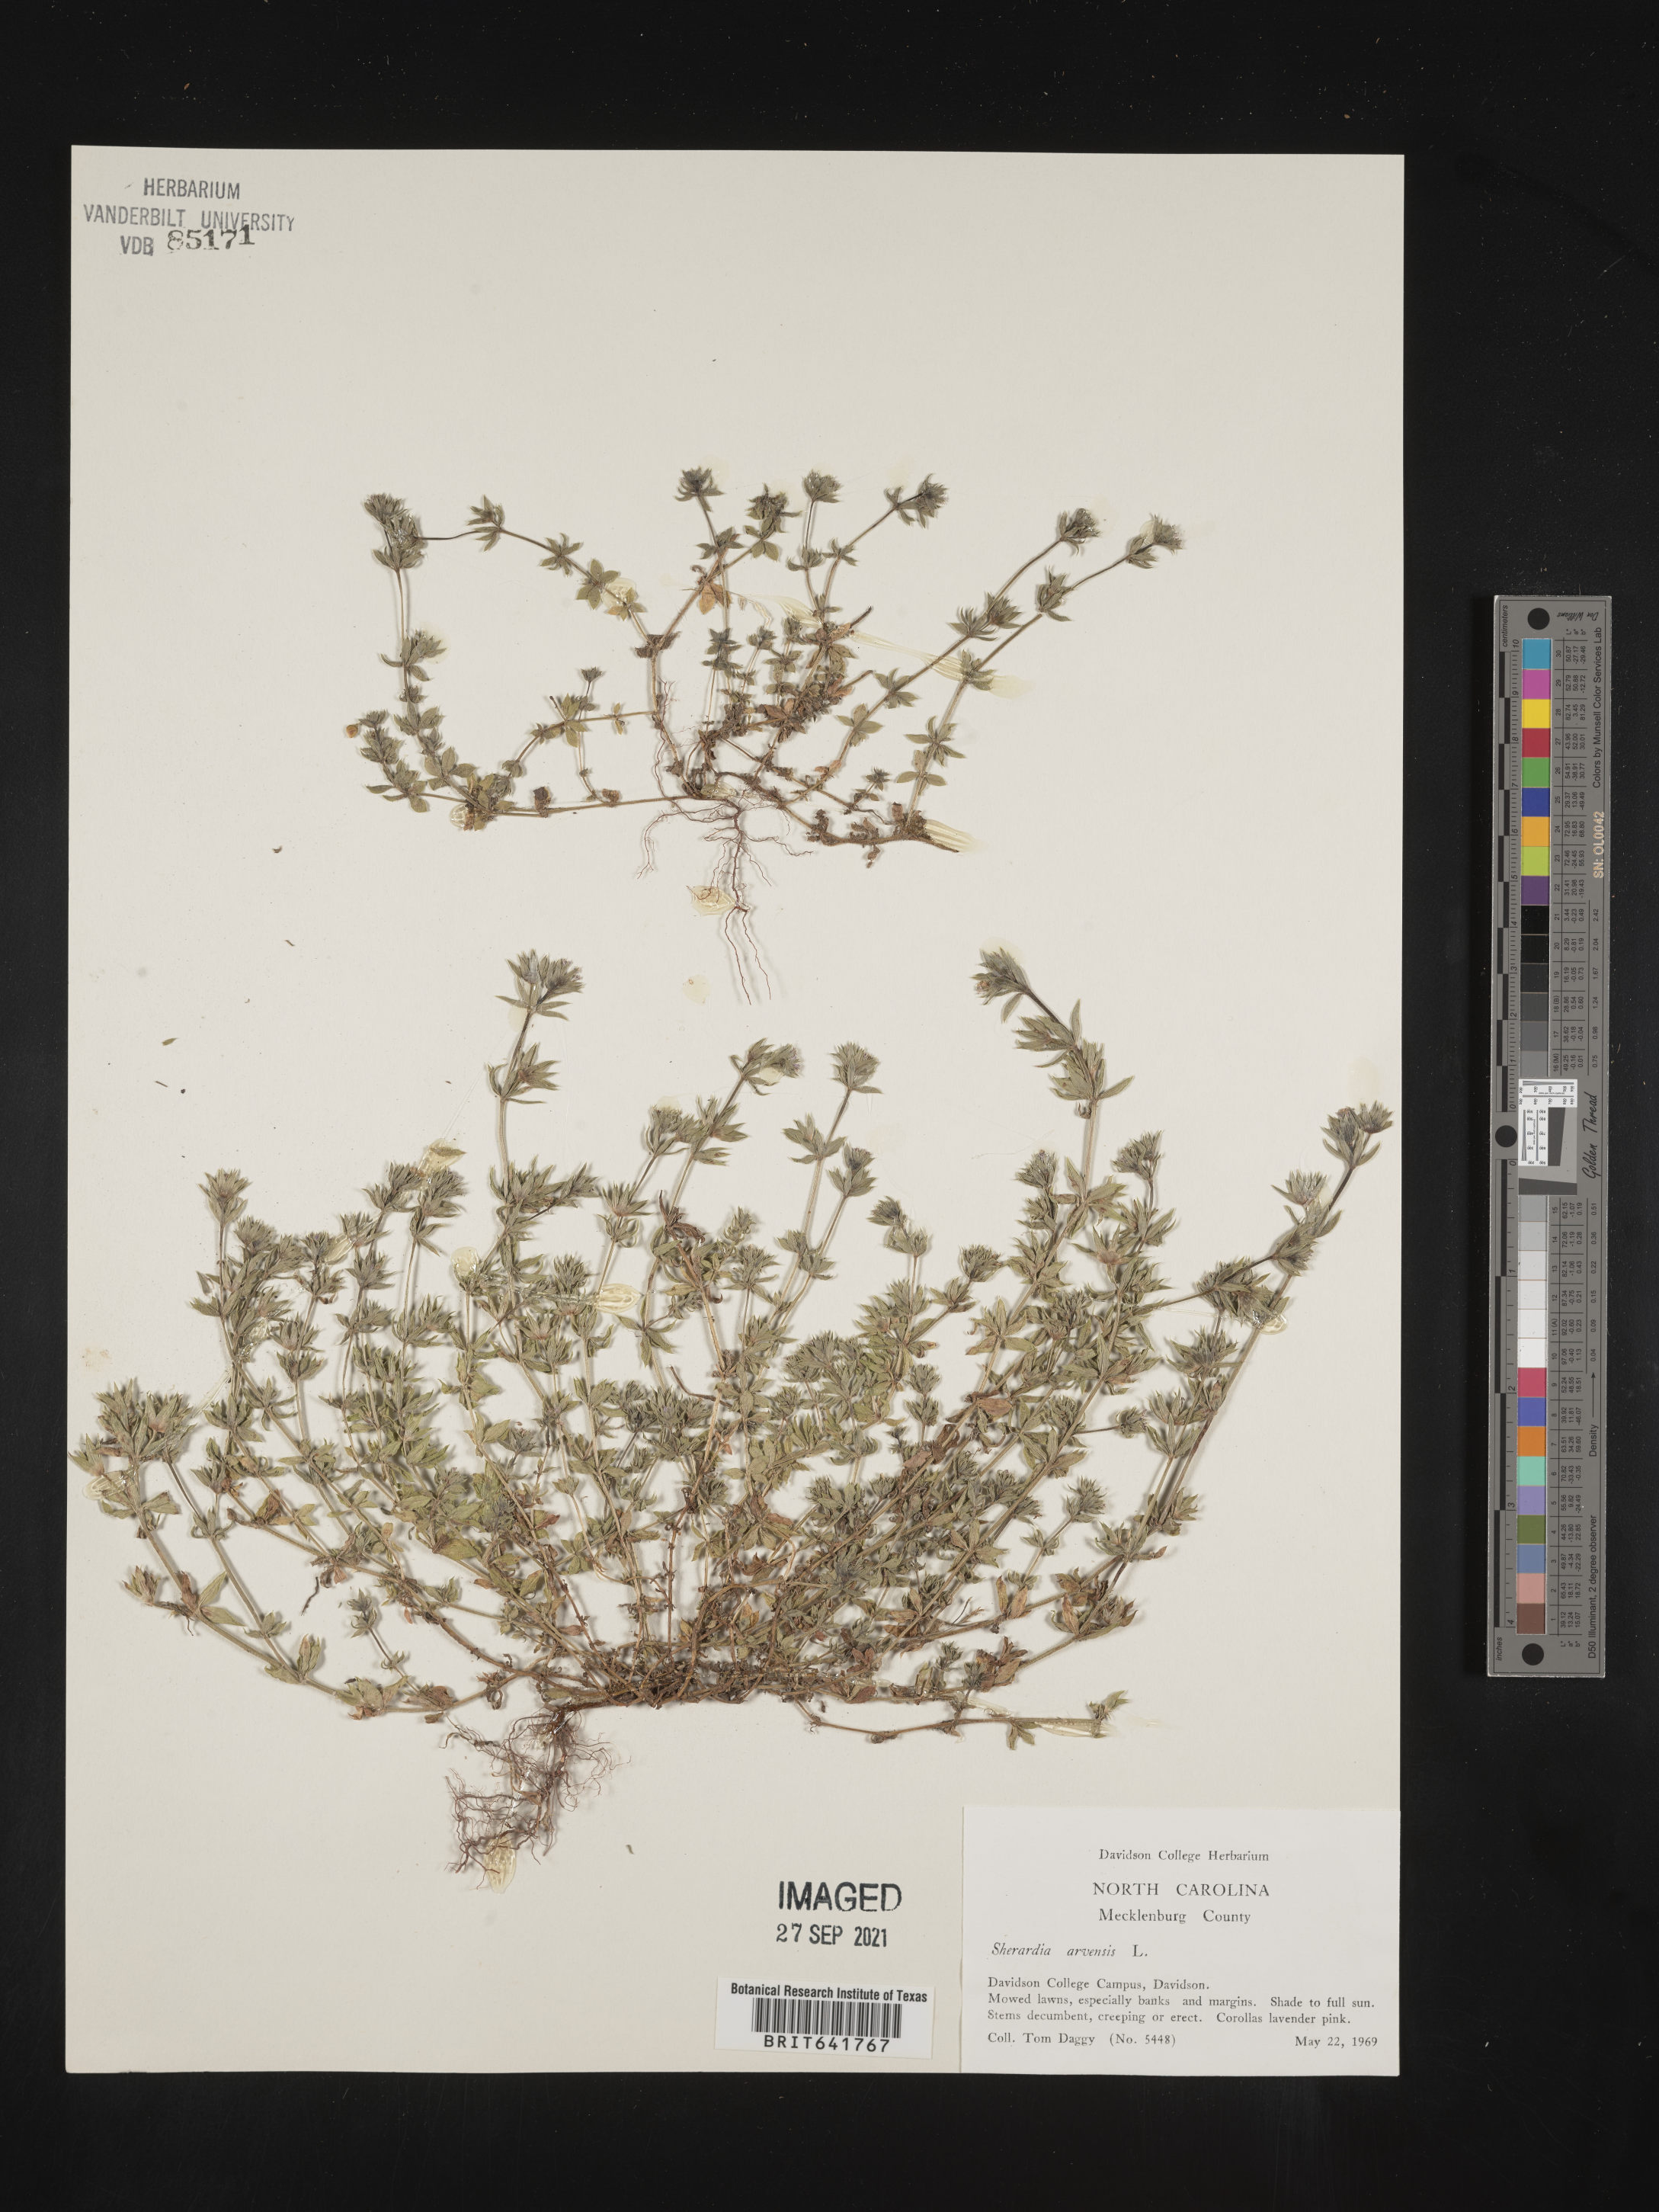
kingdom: Plantae
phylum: Tracheophyta
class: Magnoliopsida
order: Gentianales
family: Rubiaceae
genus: Sherardia
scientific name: Sherardia arvensis
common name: Field madder
